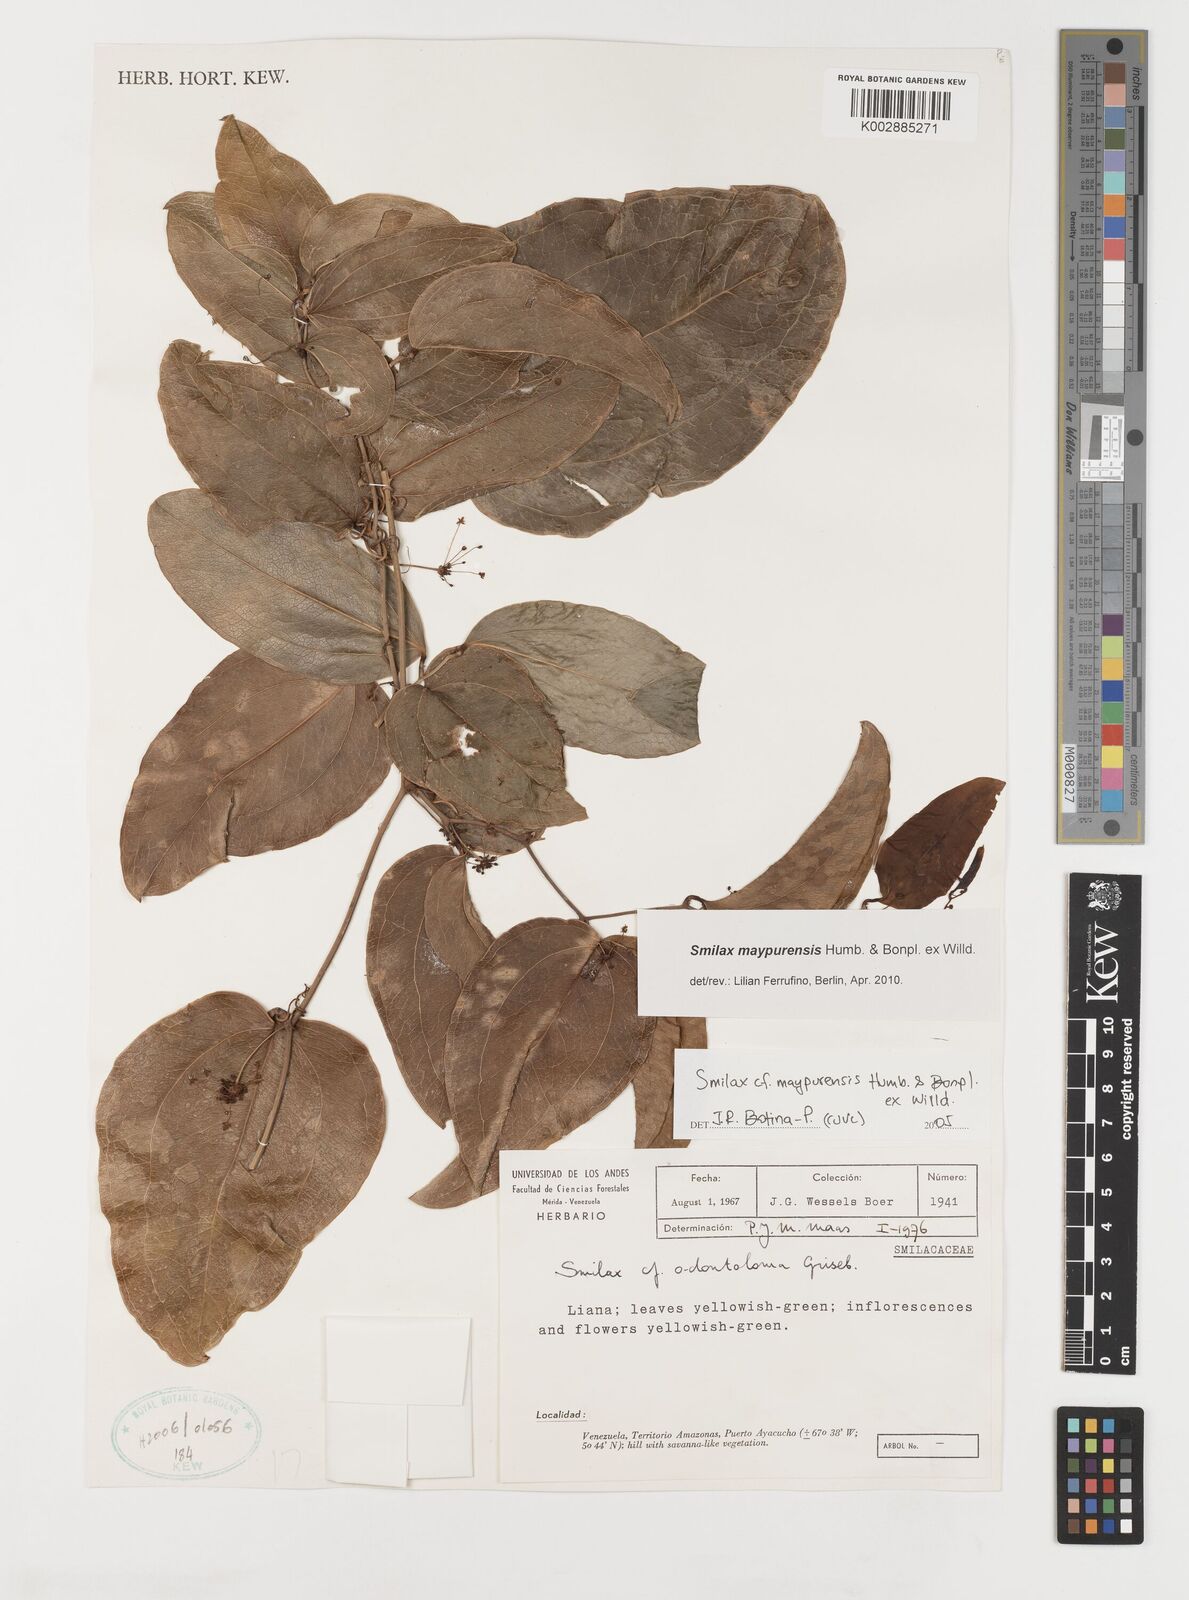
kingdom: Plantae
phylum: Tracheophyta
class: Liliopsida
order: Liliales
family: Smilacaceae
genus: Smilax
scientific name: Smilax maypurensis
